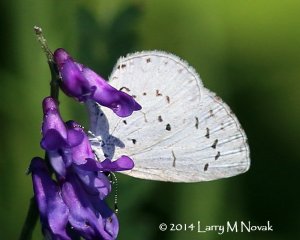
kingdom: Animalia
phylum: Arthropoda
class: Insecta
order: Lepidoptera
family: Lycaenidae
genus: Cyaniris
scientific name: Cyaniris neglecta
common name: Summer Azure
